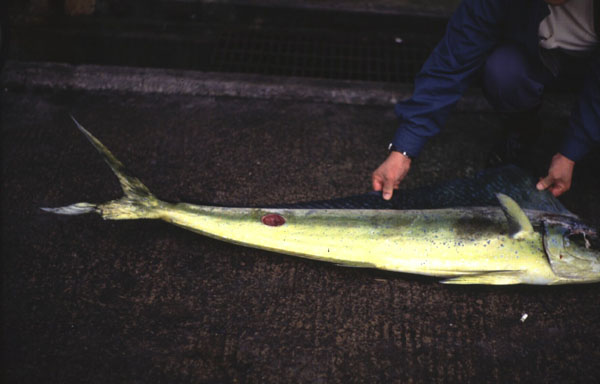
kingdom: Animalia
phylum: Chordata
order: Perciformes
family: Coryphaenidae
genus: Coryphaena
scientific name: Coryphaena
